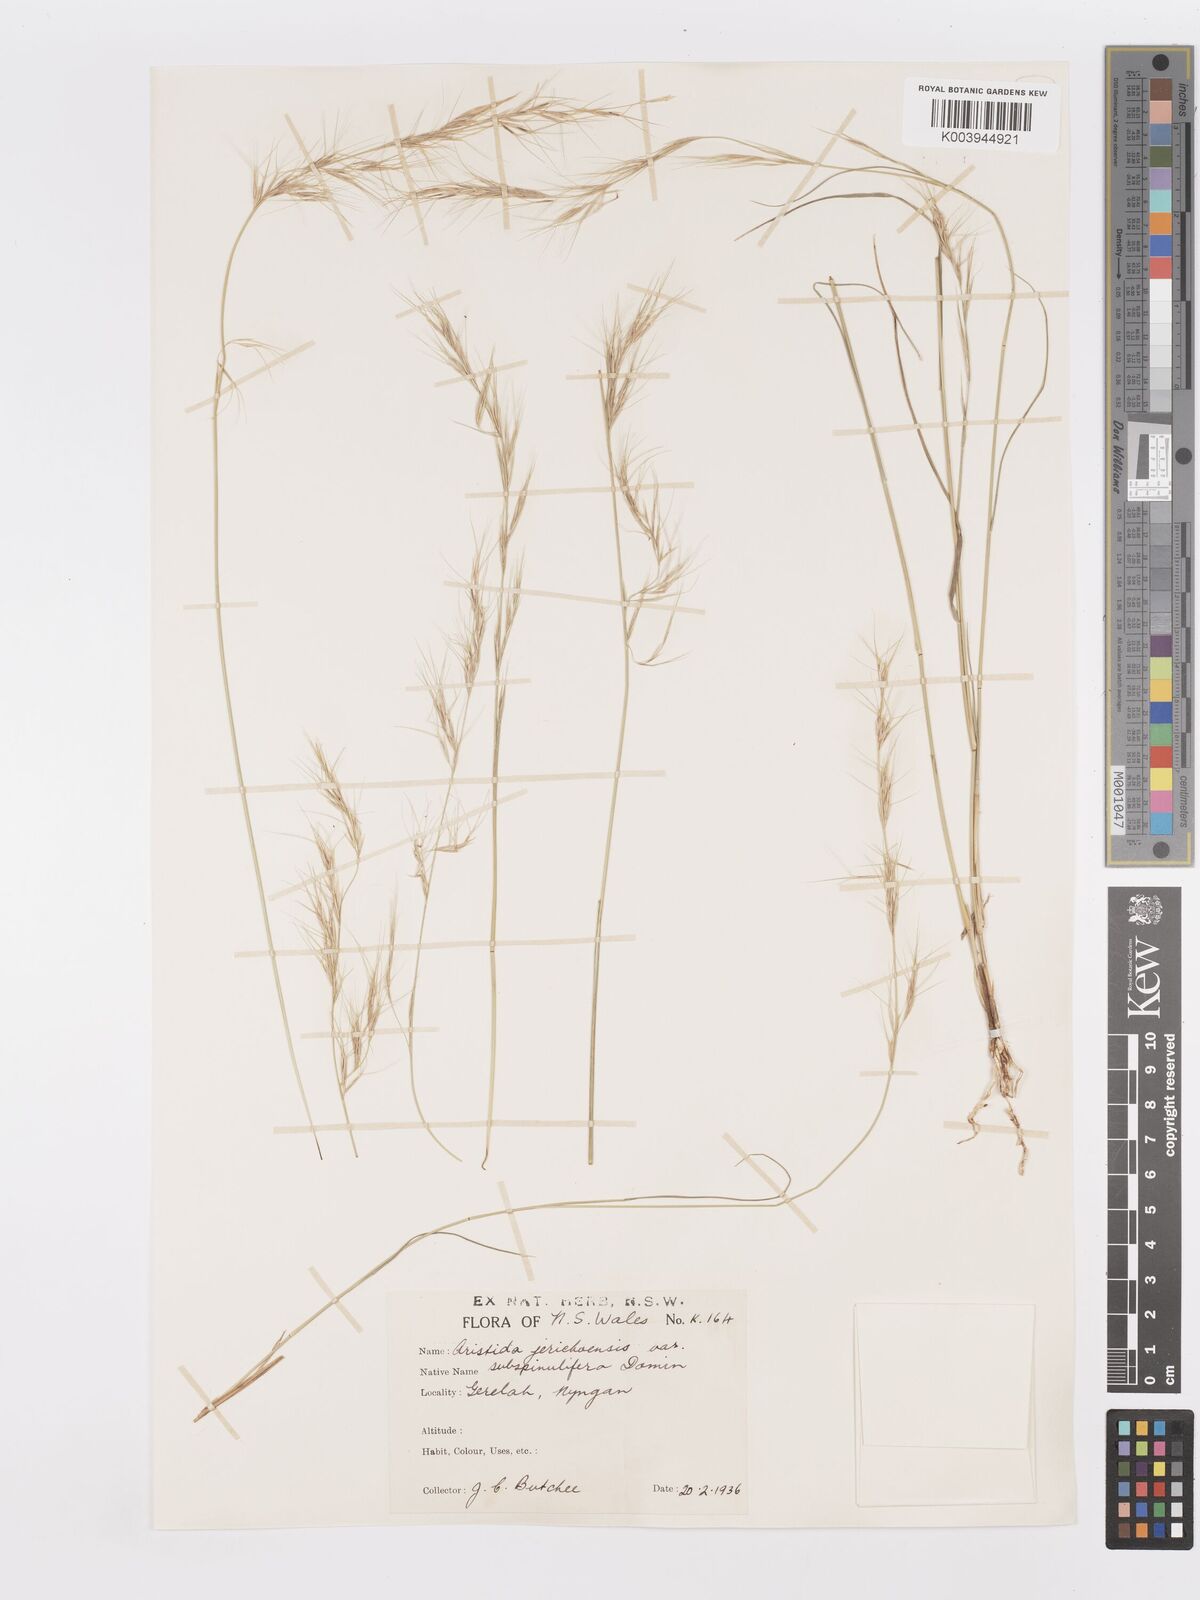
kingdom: Plantae
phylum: Tracheophyta
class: Liliopsida
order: Poales
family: Poaceae
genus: Aristida
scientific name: Aristida jerichoensis
